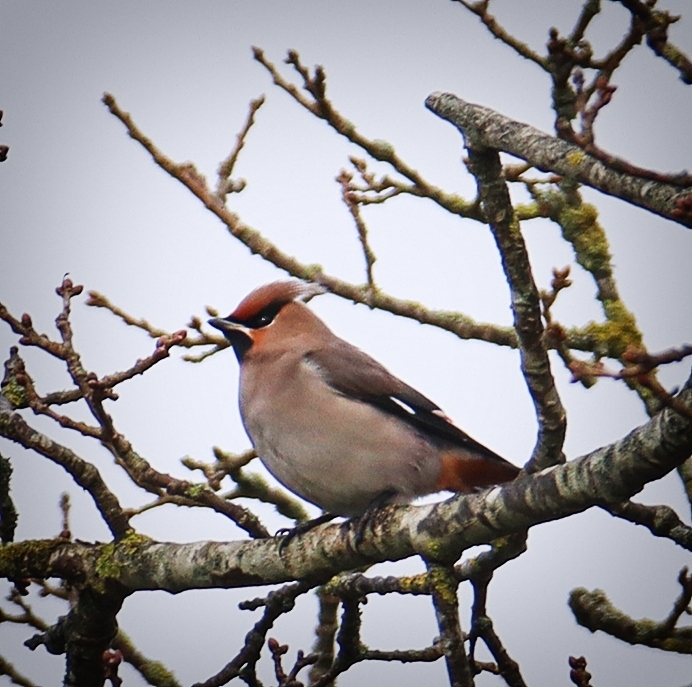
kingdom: Animalia
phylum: Chordata
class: Aves
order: Passeriformes
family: Bombycillidae
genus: Bombycilla
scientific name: Bombycilla garrulus
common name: Silkehale
